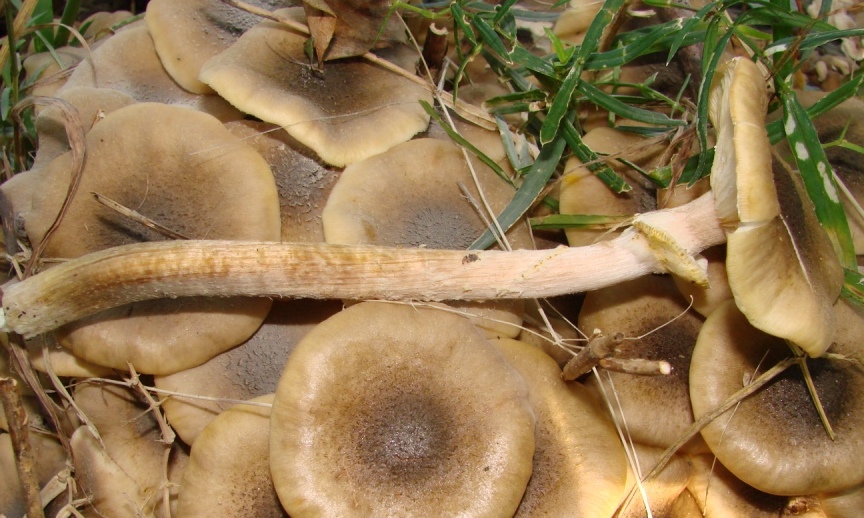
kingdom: Fungi
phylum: Basidiomycota
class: Agaricomycetes
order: Agaricales
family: Physalacriaceae
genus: Armillaria
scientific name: Armillaria mellea
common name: ægte honningsvamp
